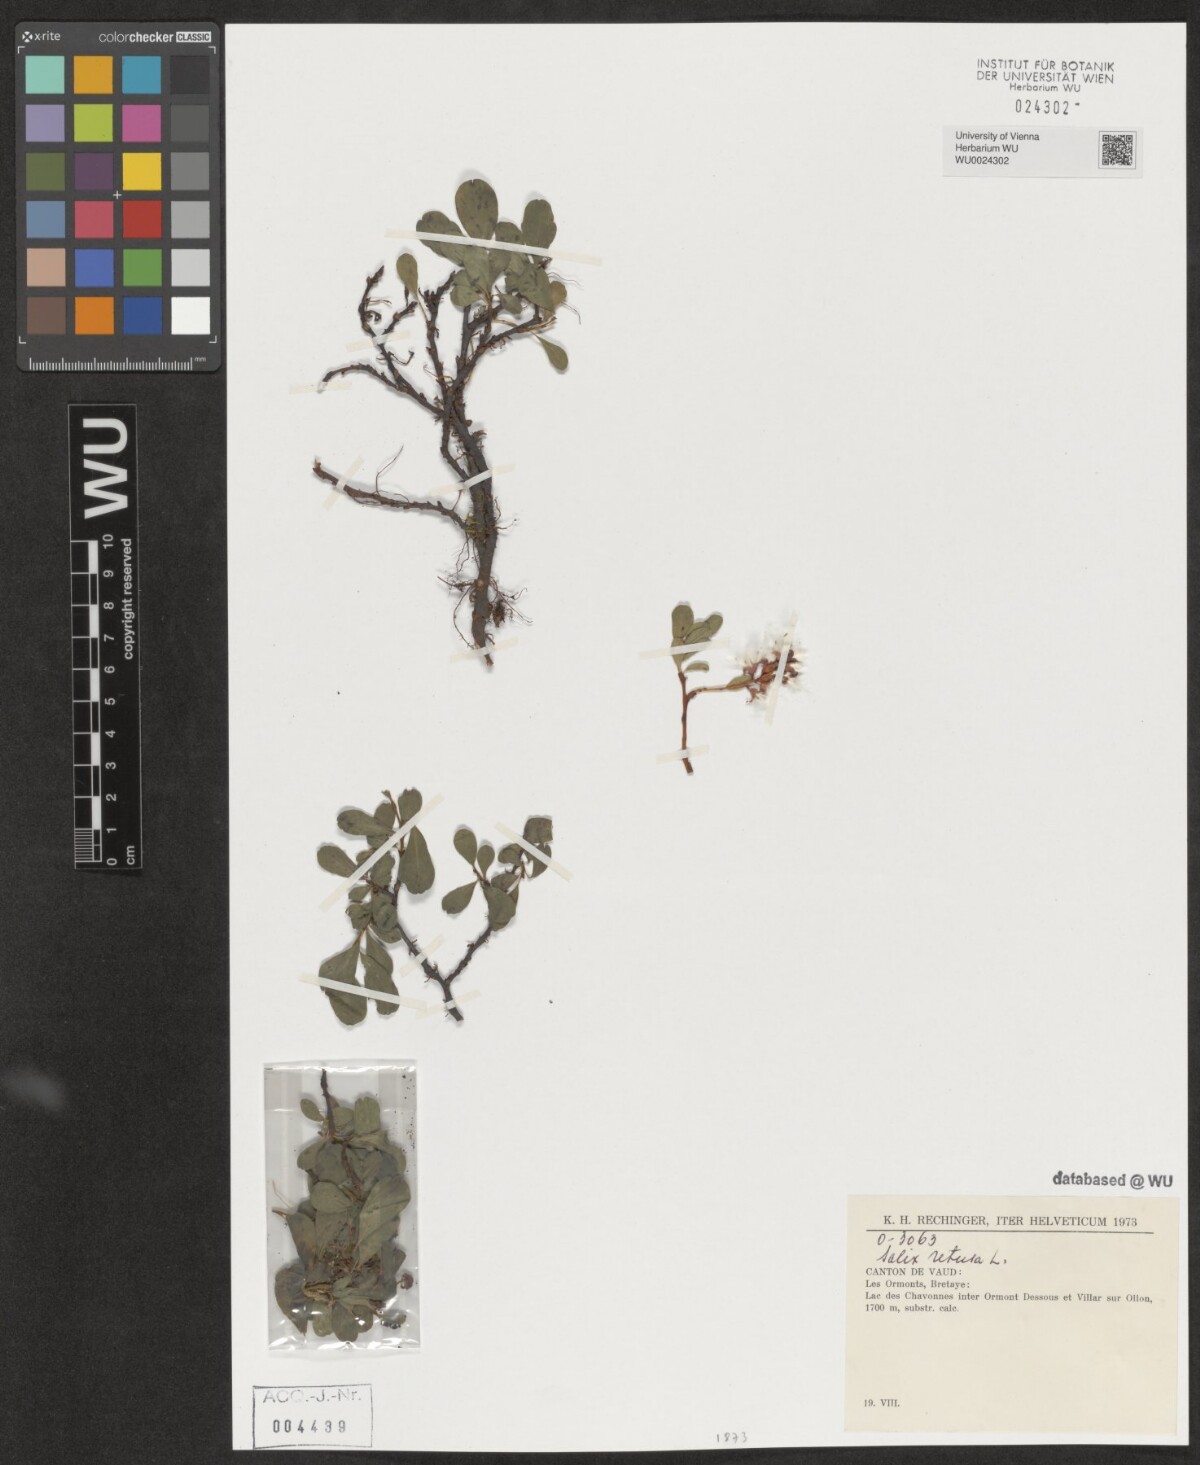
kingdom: Plantae
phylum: Tracheophyta
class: Magnoliopsida
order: Malpighiales
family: Salicaceae
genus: Salix
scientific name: Salix retusa
